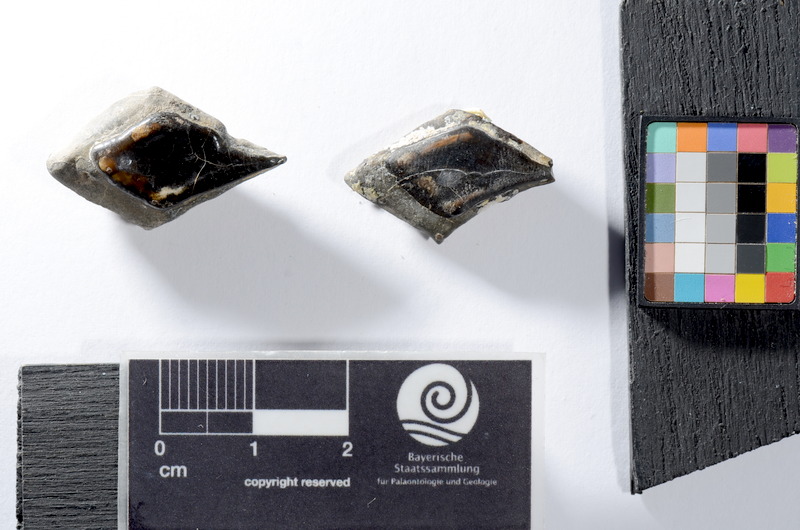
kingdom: Animalia
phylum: Chordata
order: Lepisosteiformes
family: Lepidotidae
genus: Lepidotes
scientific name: Lepidotes
